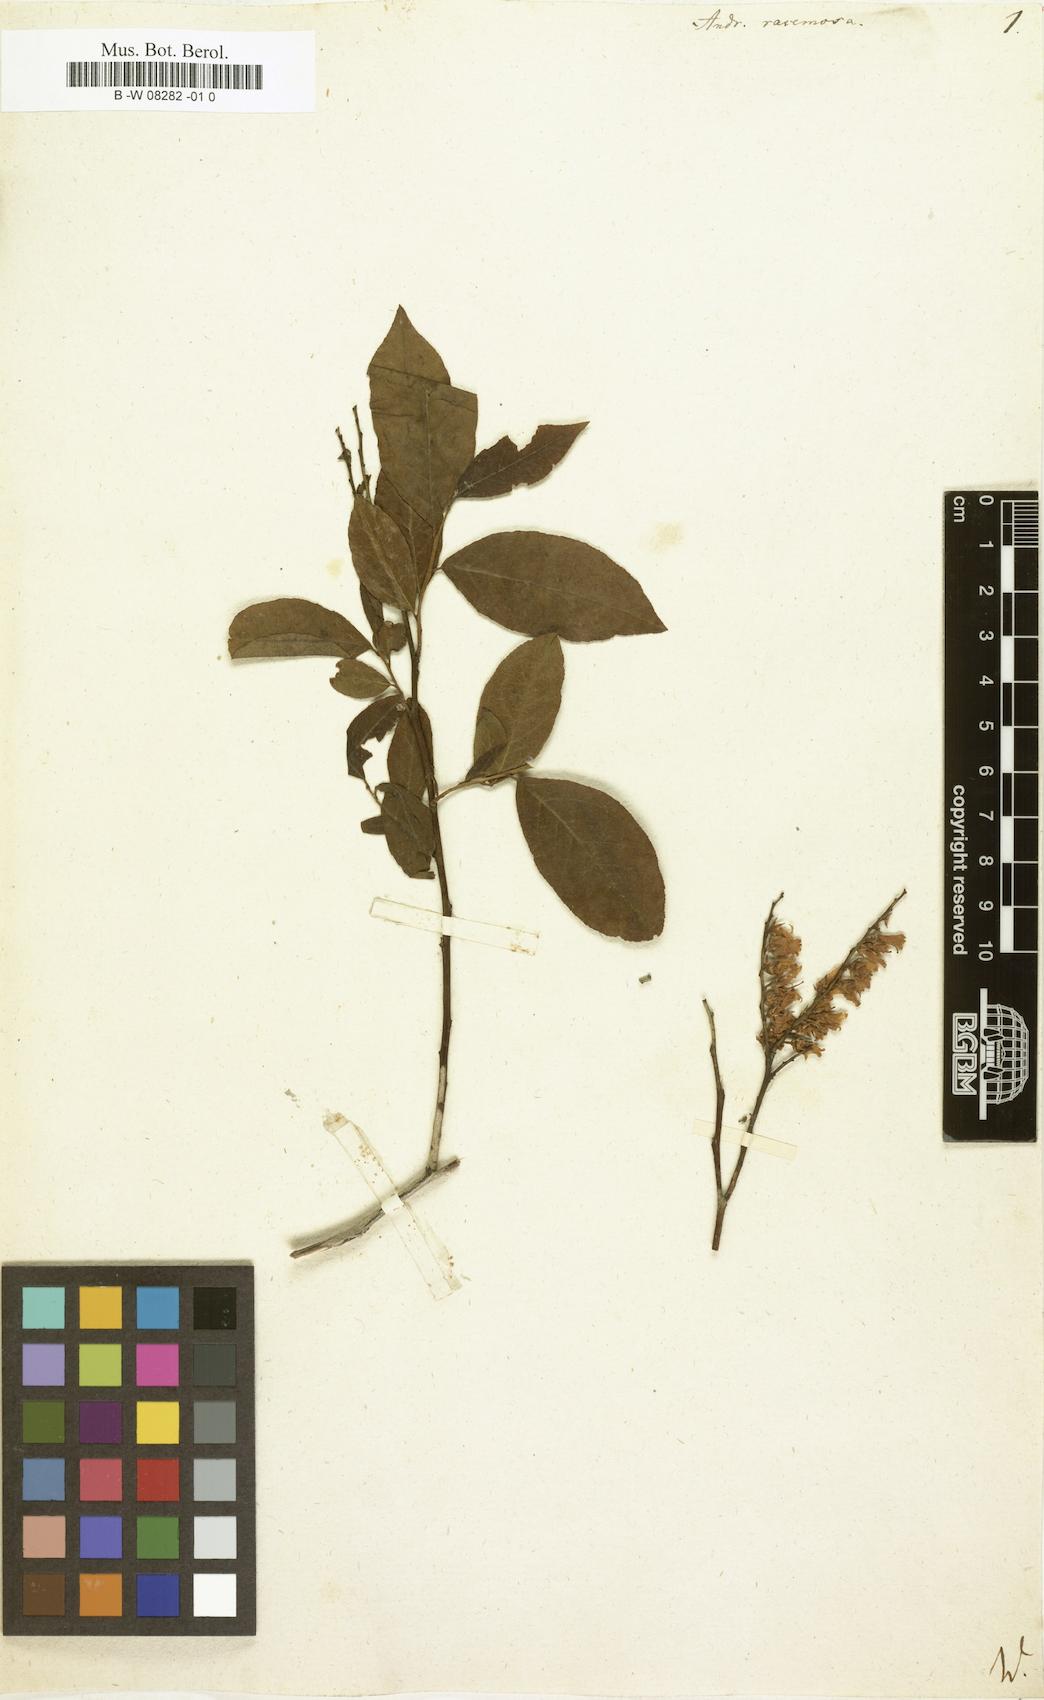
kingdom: Plantae
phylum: Tracheophyta
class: Magnoliopsida
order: Ericales
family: Ericaceae
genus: Eubotrys
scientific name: Eubotrys racemosa
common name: Fetterbush
